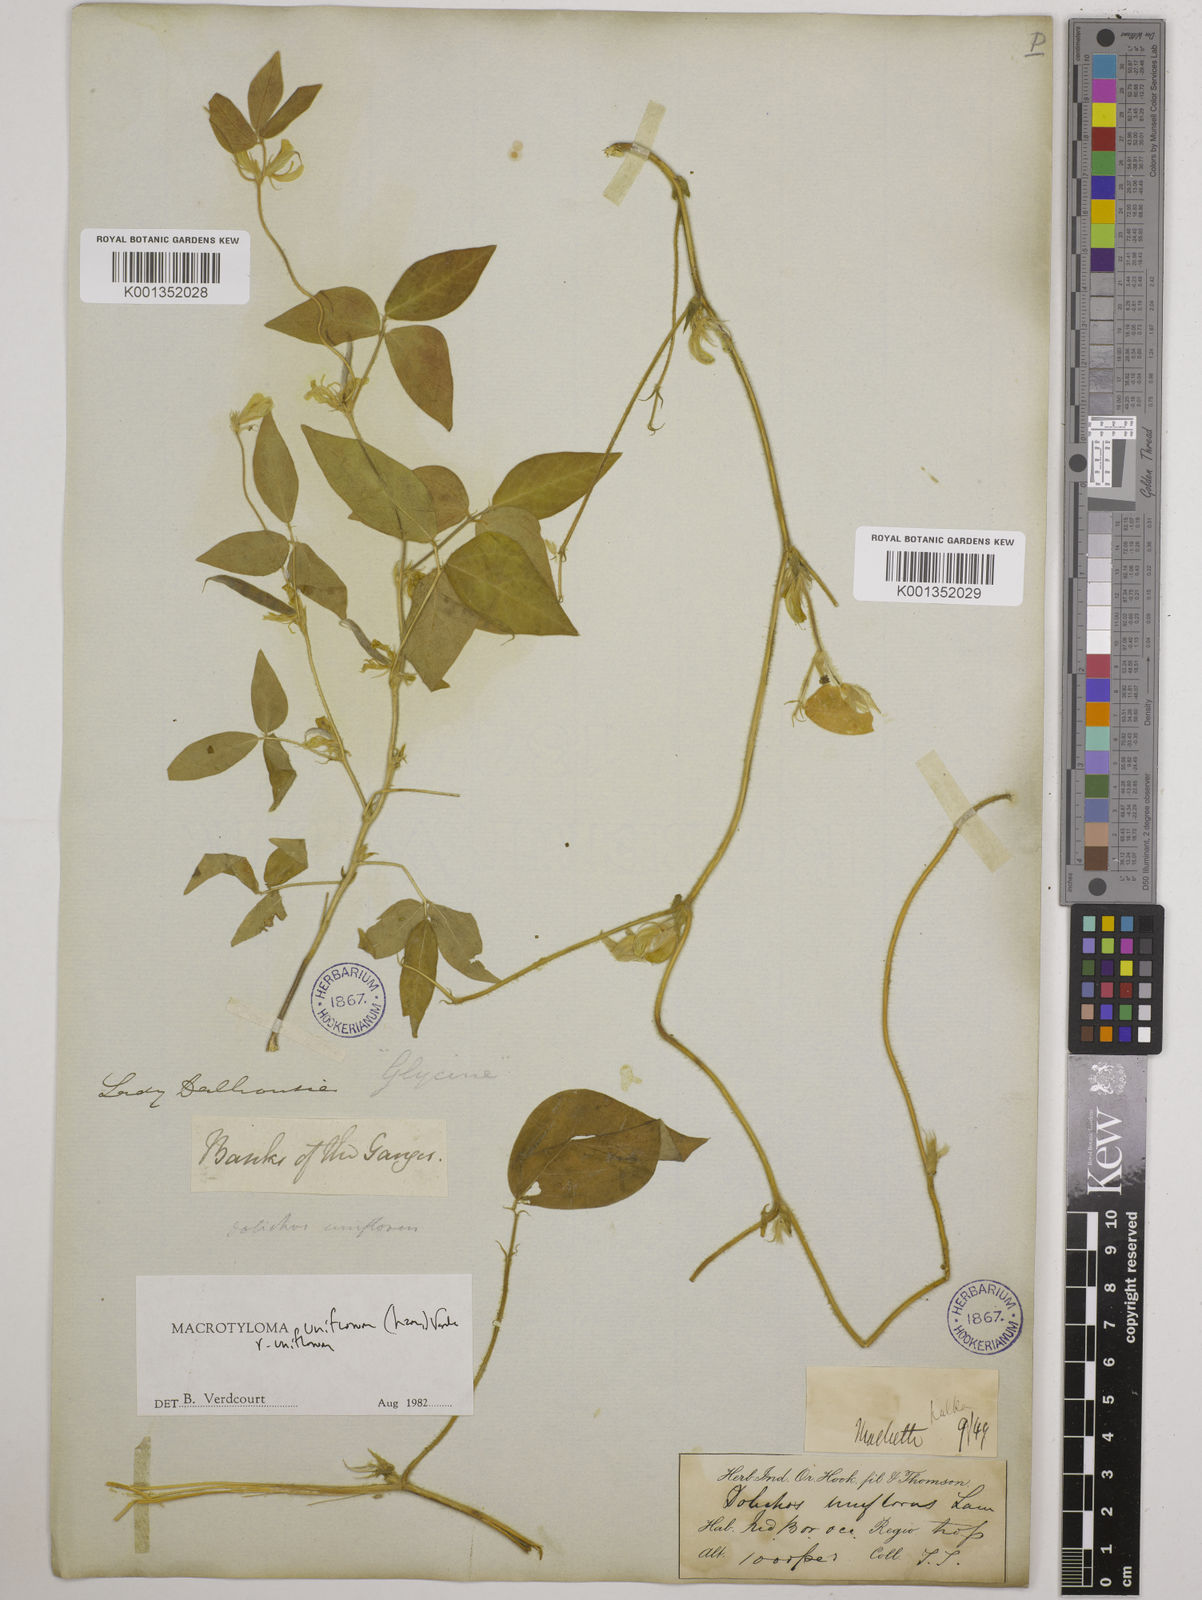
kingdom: Plantae
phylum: Tracheophyta
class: Magnoliopsida
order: Fabales
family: Fabaceae
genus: Macrotyloma
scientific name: Macrotyloma uniflorum
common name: Horse gram
